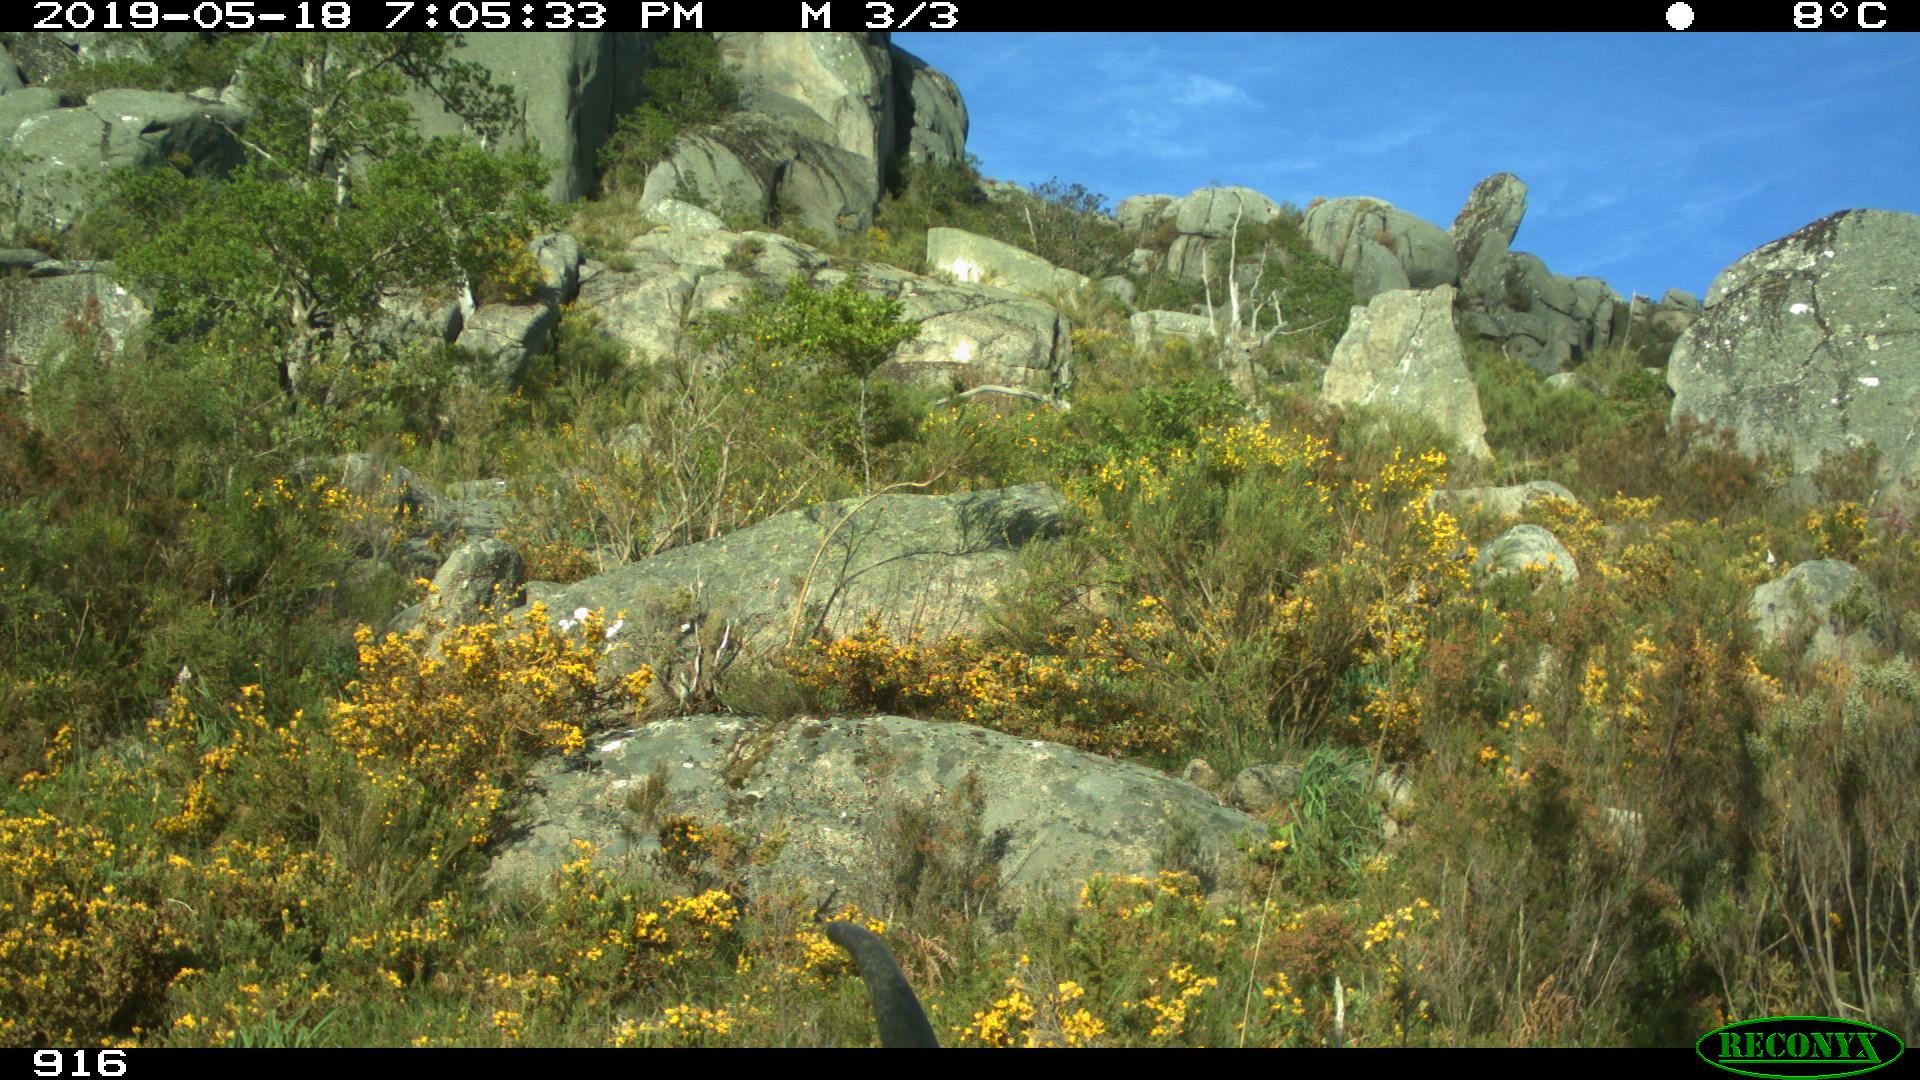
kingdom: Animalia
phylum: Chordata
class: Mammalia
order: Artiodactyla
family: Bovidae
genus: Bos
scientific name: Bos taurus
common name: Domesticated cattle
